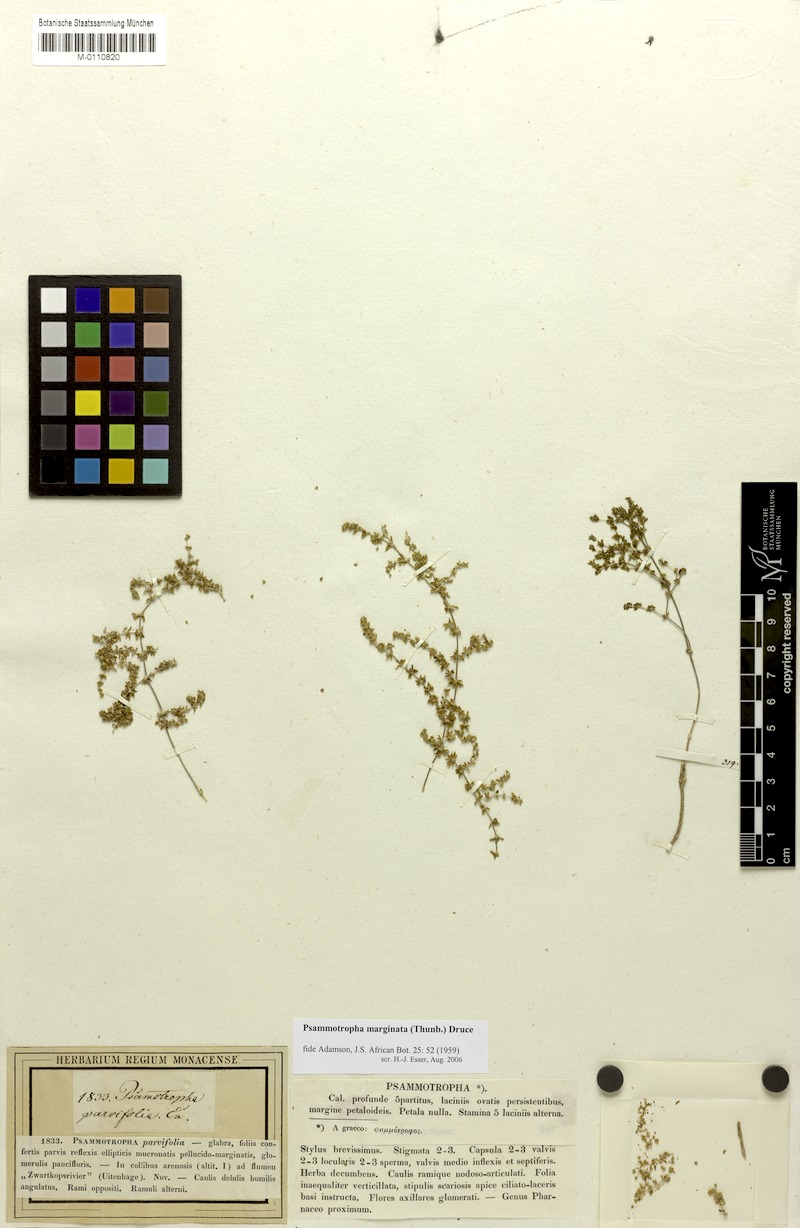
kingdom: Plantae
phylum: Tracheophyta
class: Magnoliopsida
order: Caryophyllales
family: Molluginaceae
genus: Psammotropha
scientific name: Psammotropha marginata
